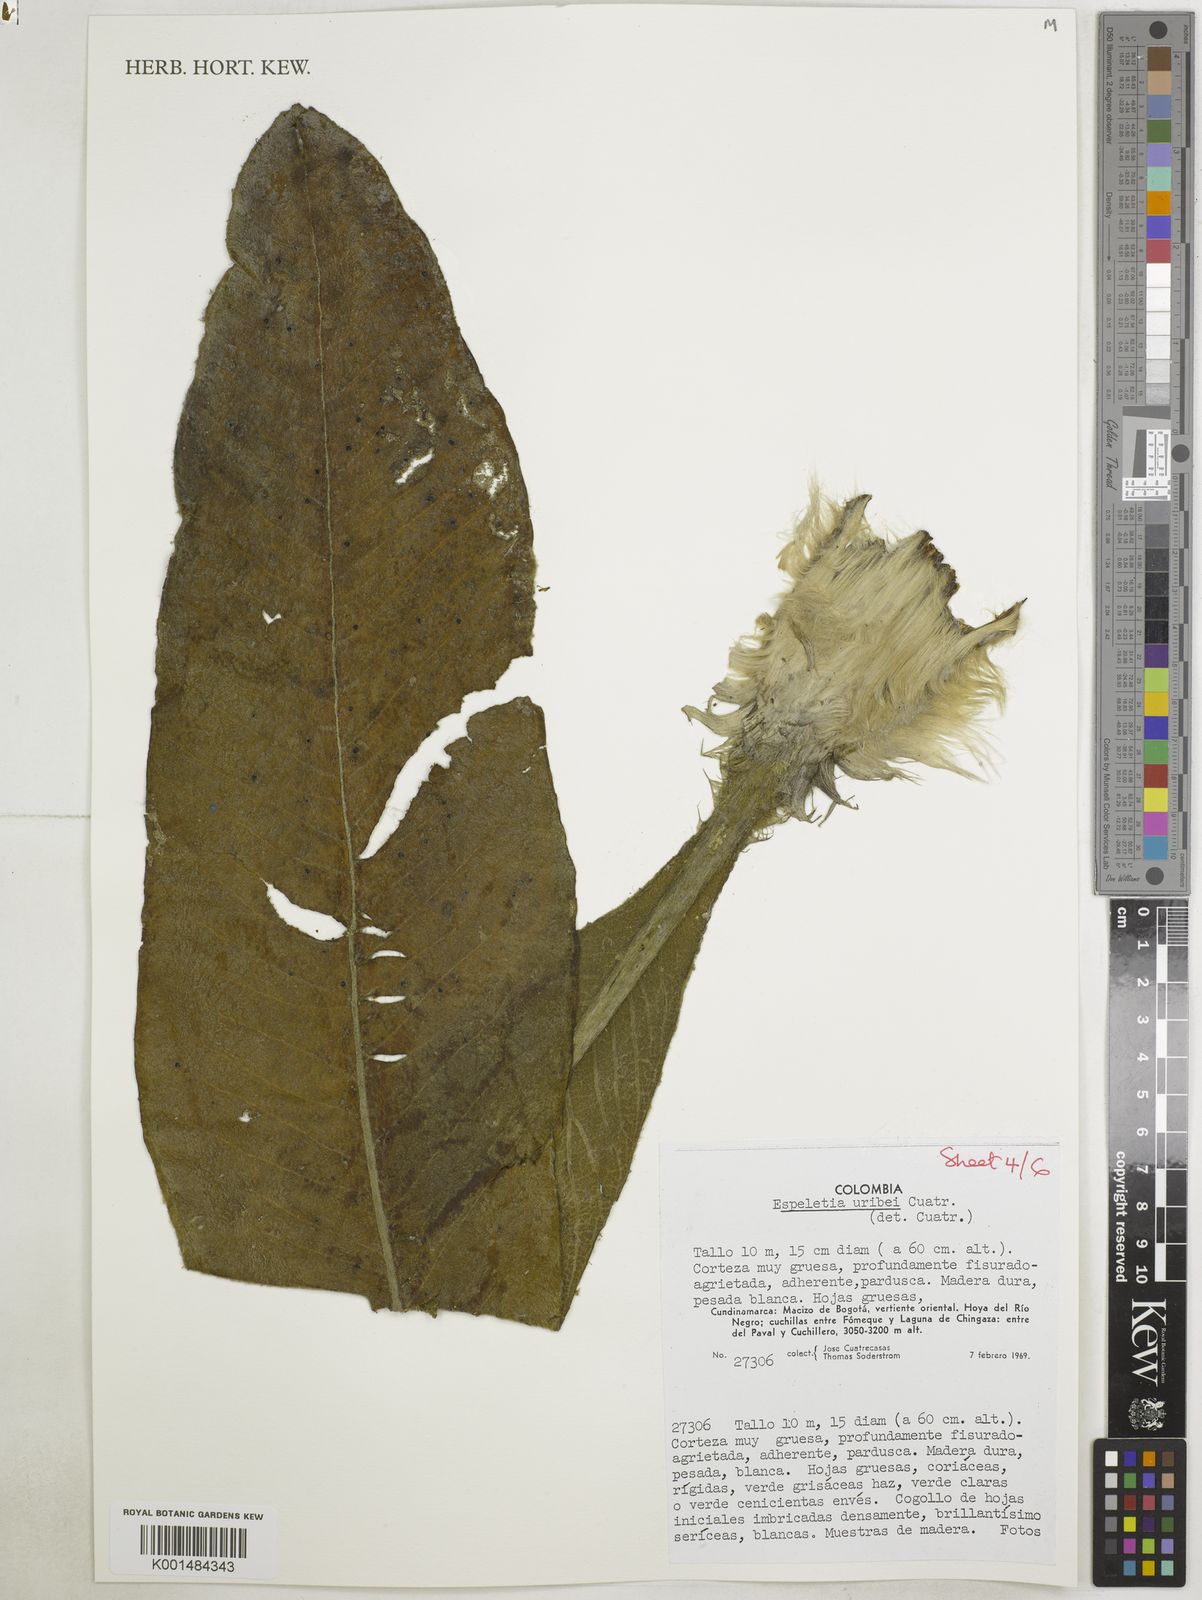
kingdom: Plantae
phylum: Tracheophyta
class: Magnoliopsida
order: Asterales
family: Asteraceae
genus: Espeletia
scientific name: Espeletia uribei
